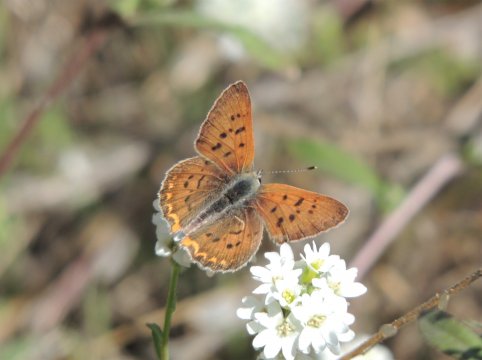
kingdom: Animalia
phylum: Arthropoda
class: Insecta
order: Lepidoptera
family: Sesiidae
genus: Sesia
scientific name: Sesia Lycaena helloides
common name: Purplish Copper
